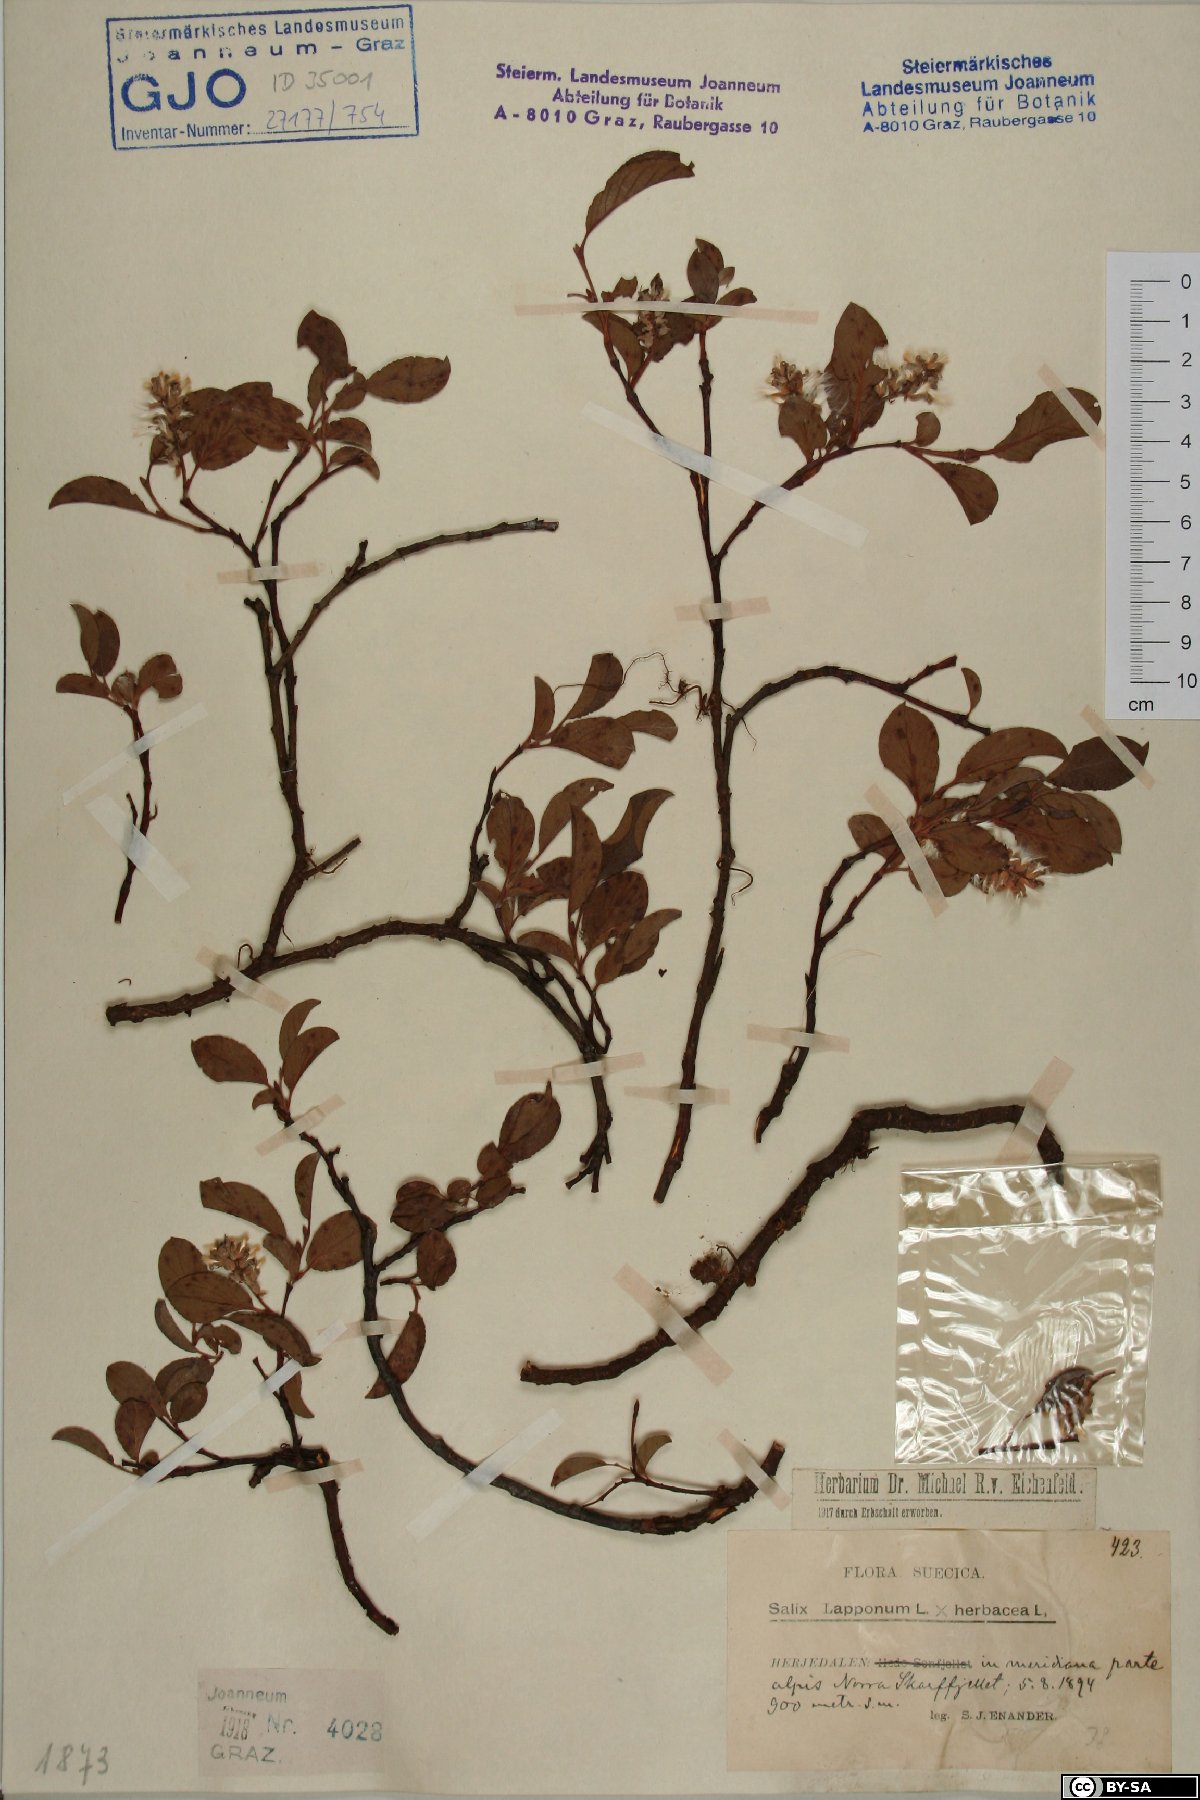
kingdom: Plantae
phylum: Tracheophyta
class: Magnoliopsida
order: Malpighiales
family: Salicaceae
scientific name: Salicaceae
